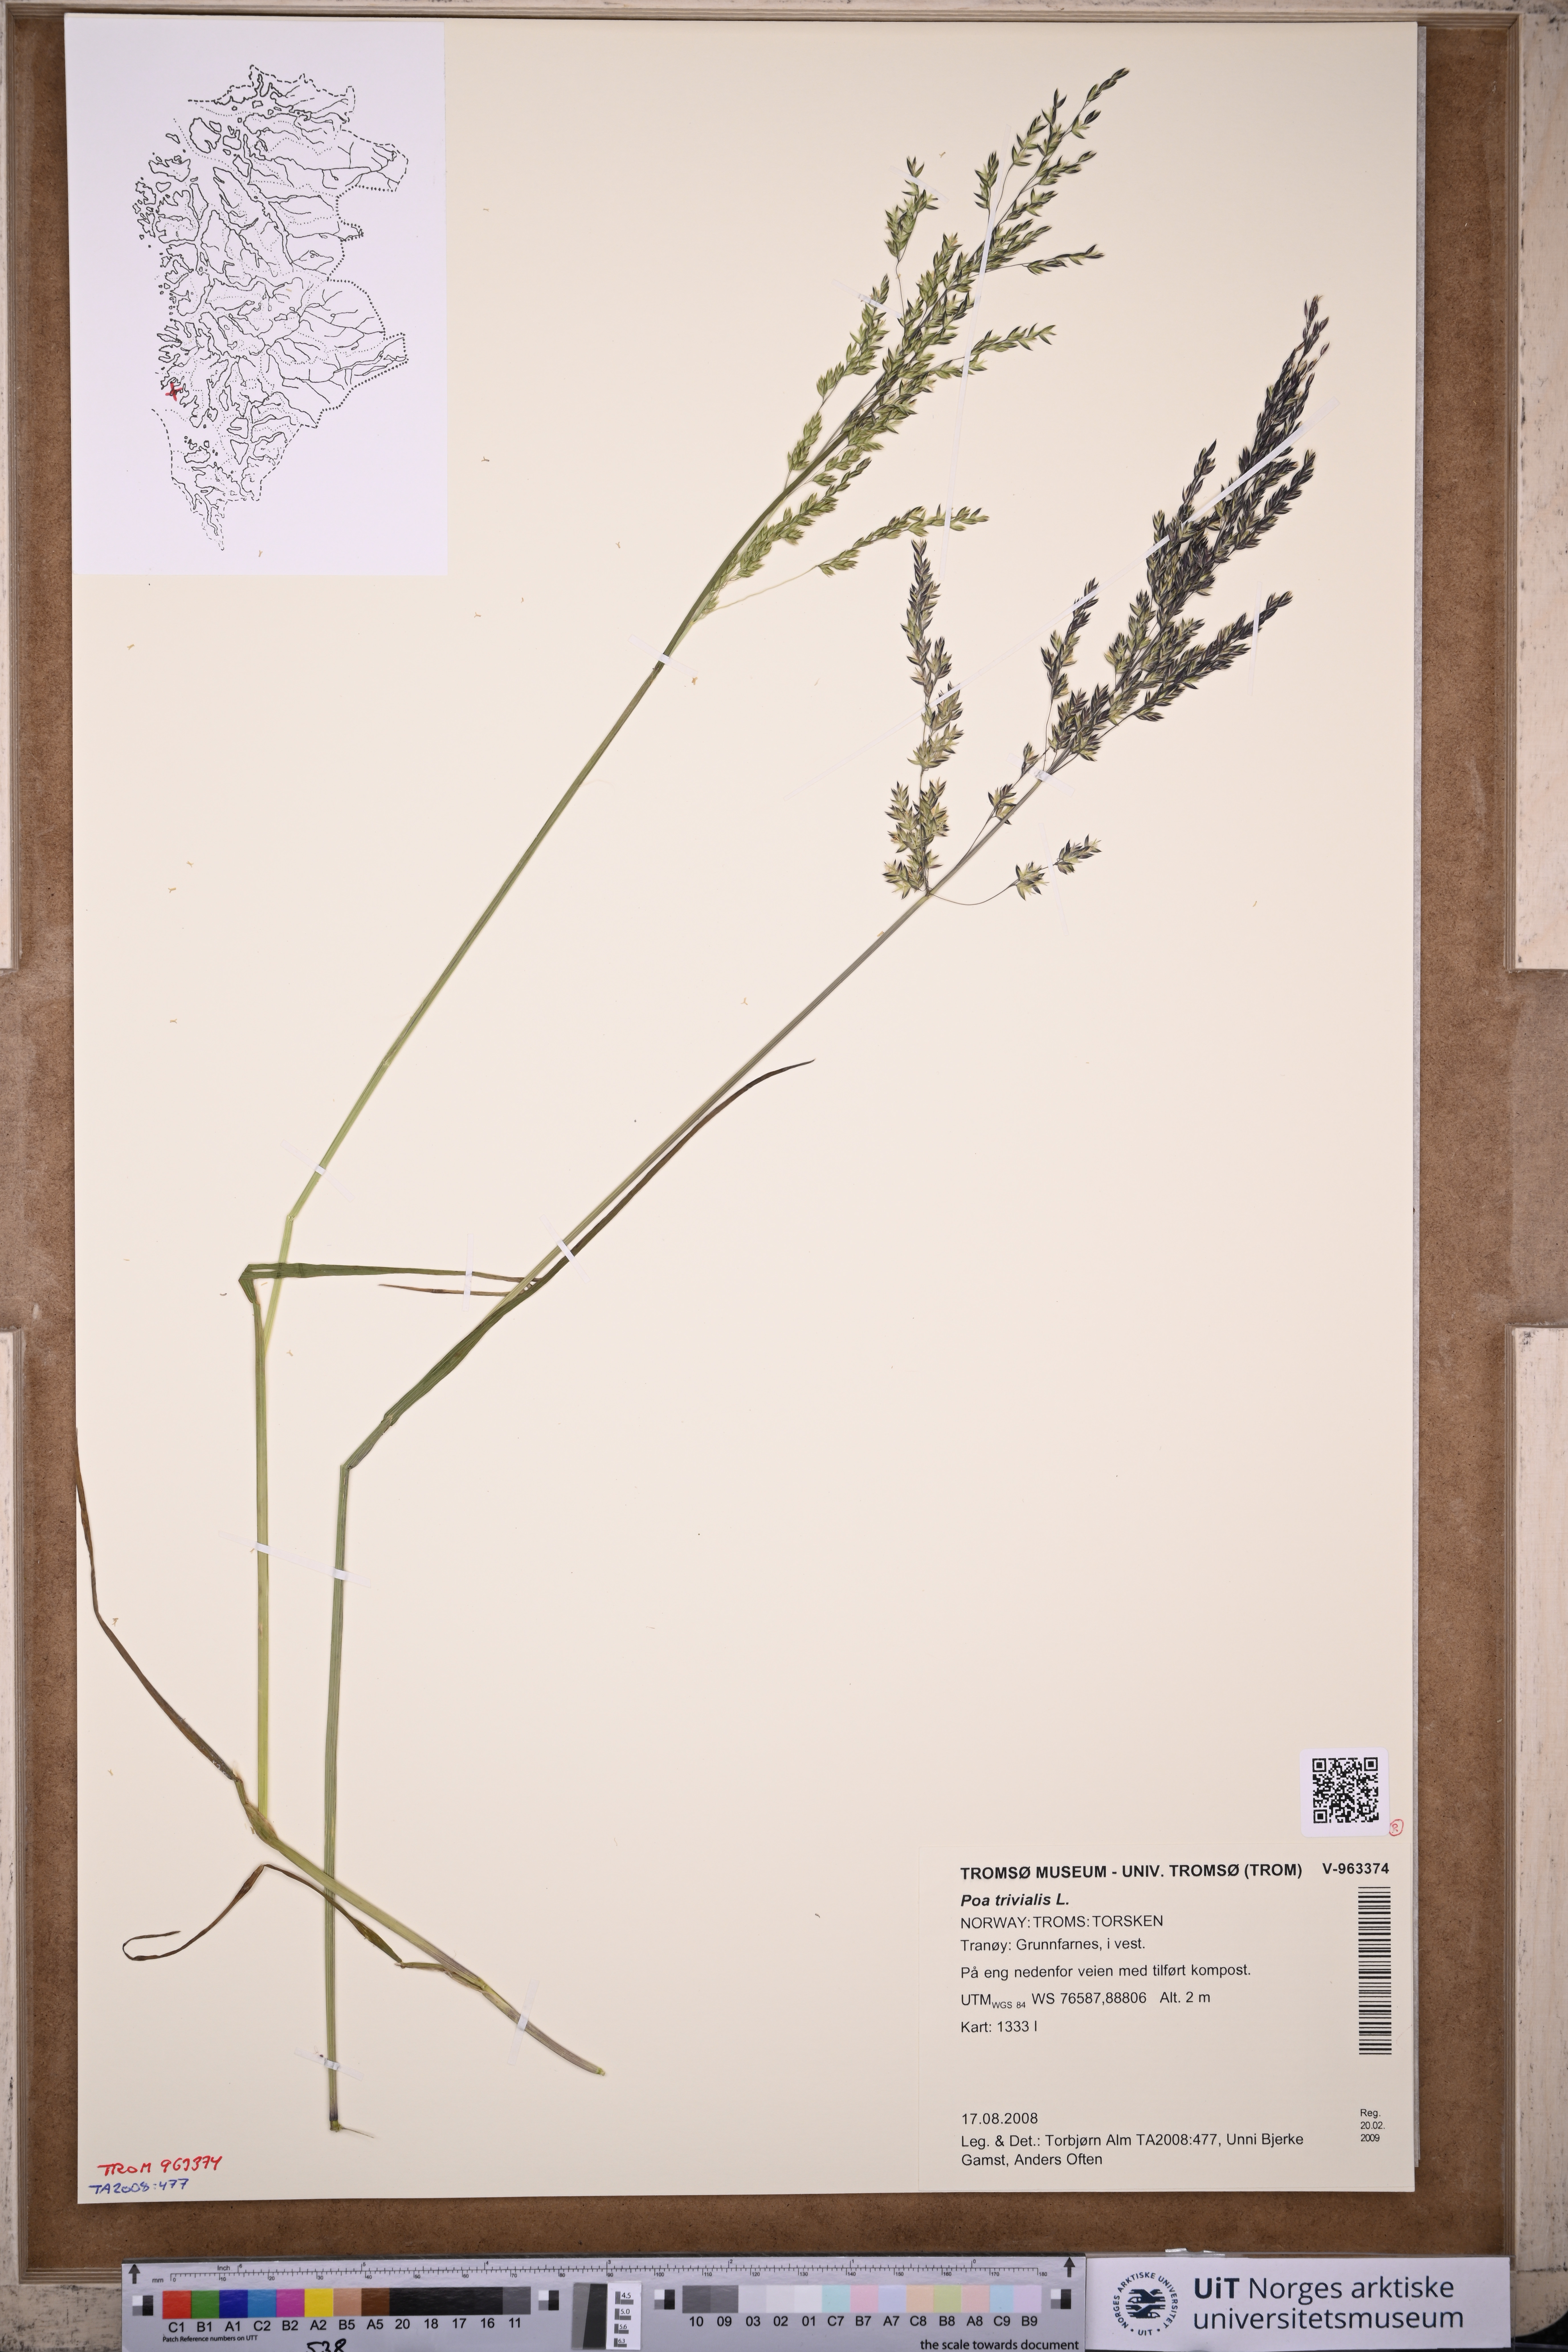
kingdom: Plantae
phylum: Tracheophyta
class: Liliopsida
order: Poales
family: Poaceae
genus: Poa
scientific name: Poa trivialis
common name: Rough bluegrass
